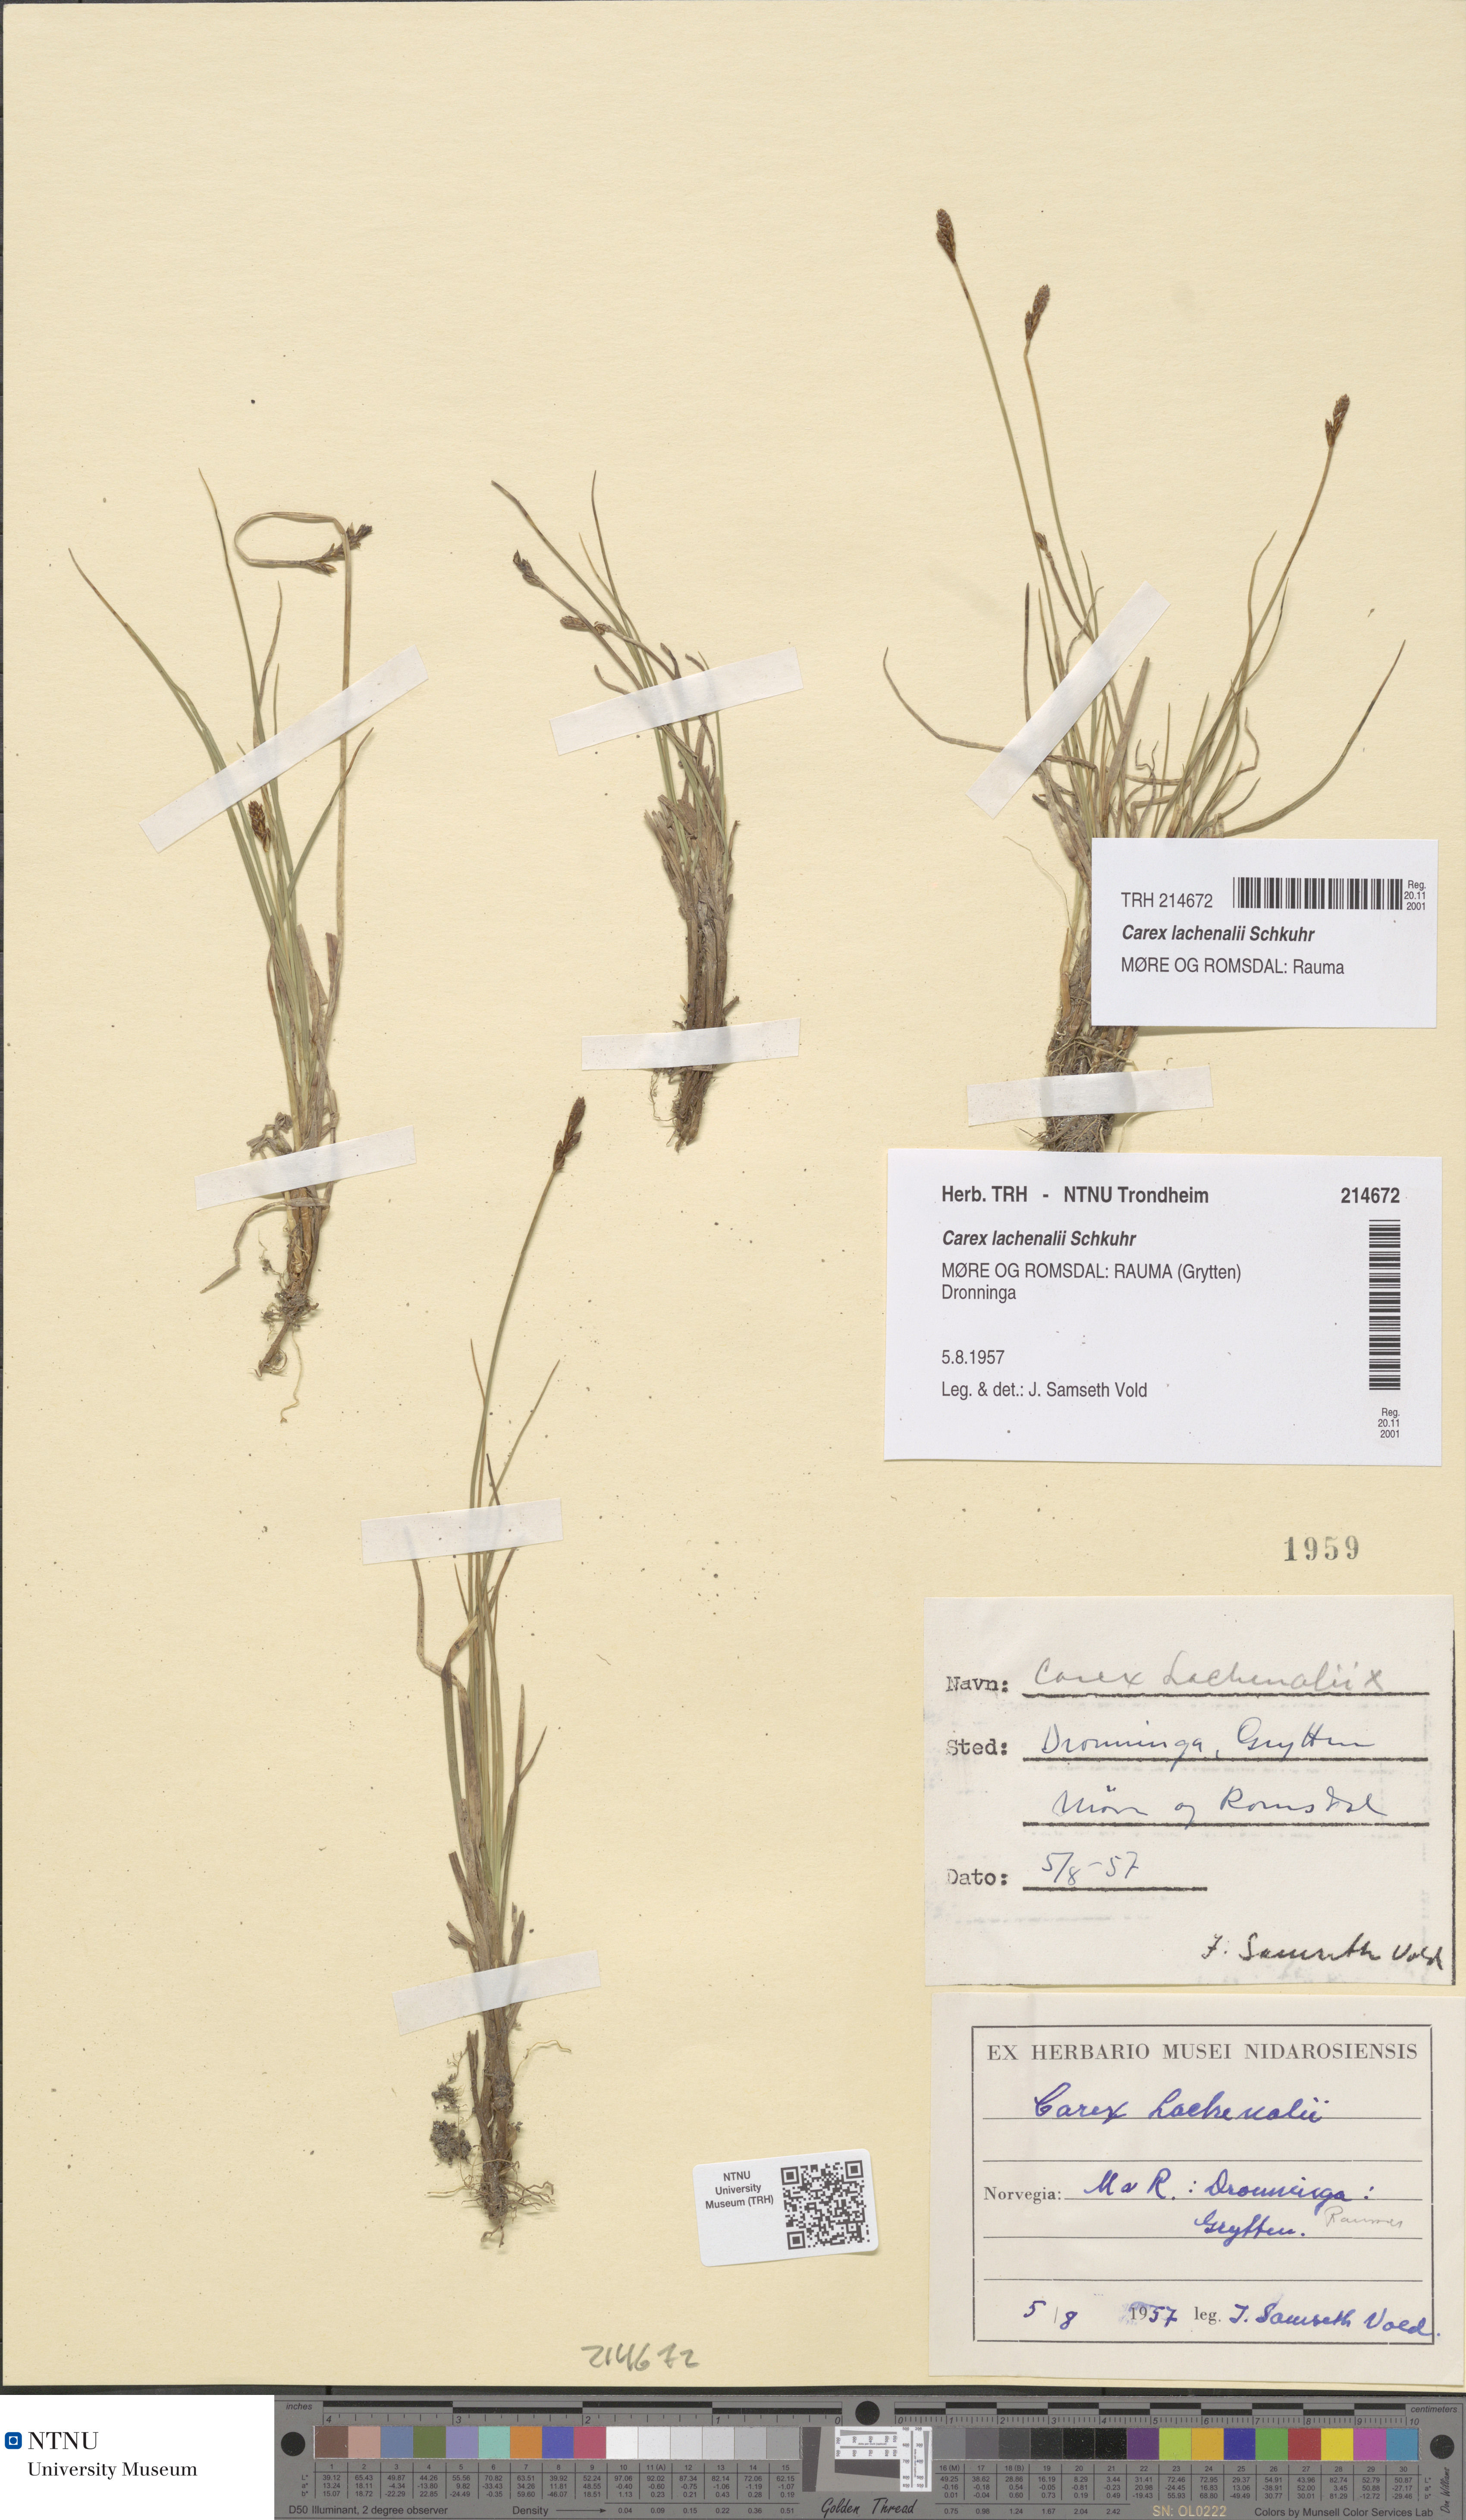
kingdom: Plantae
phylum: Tracheophyta
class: Liliopsida
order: Poales
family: Cyperaceae
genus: Carex
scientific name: Carex lachenalii
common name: Hare's-foot sedge
